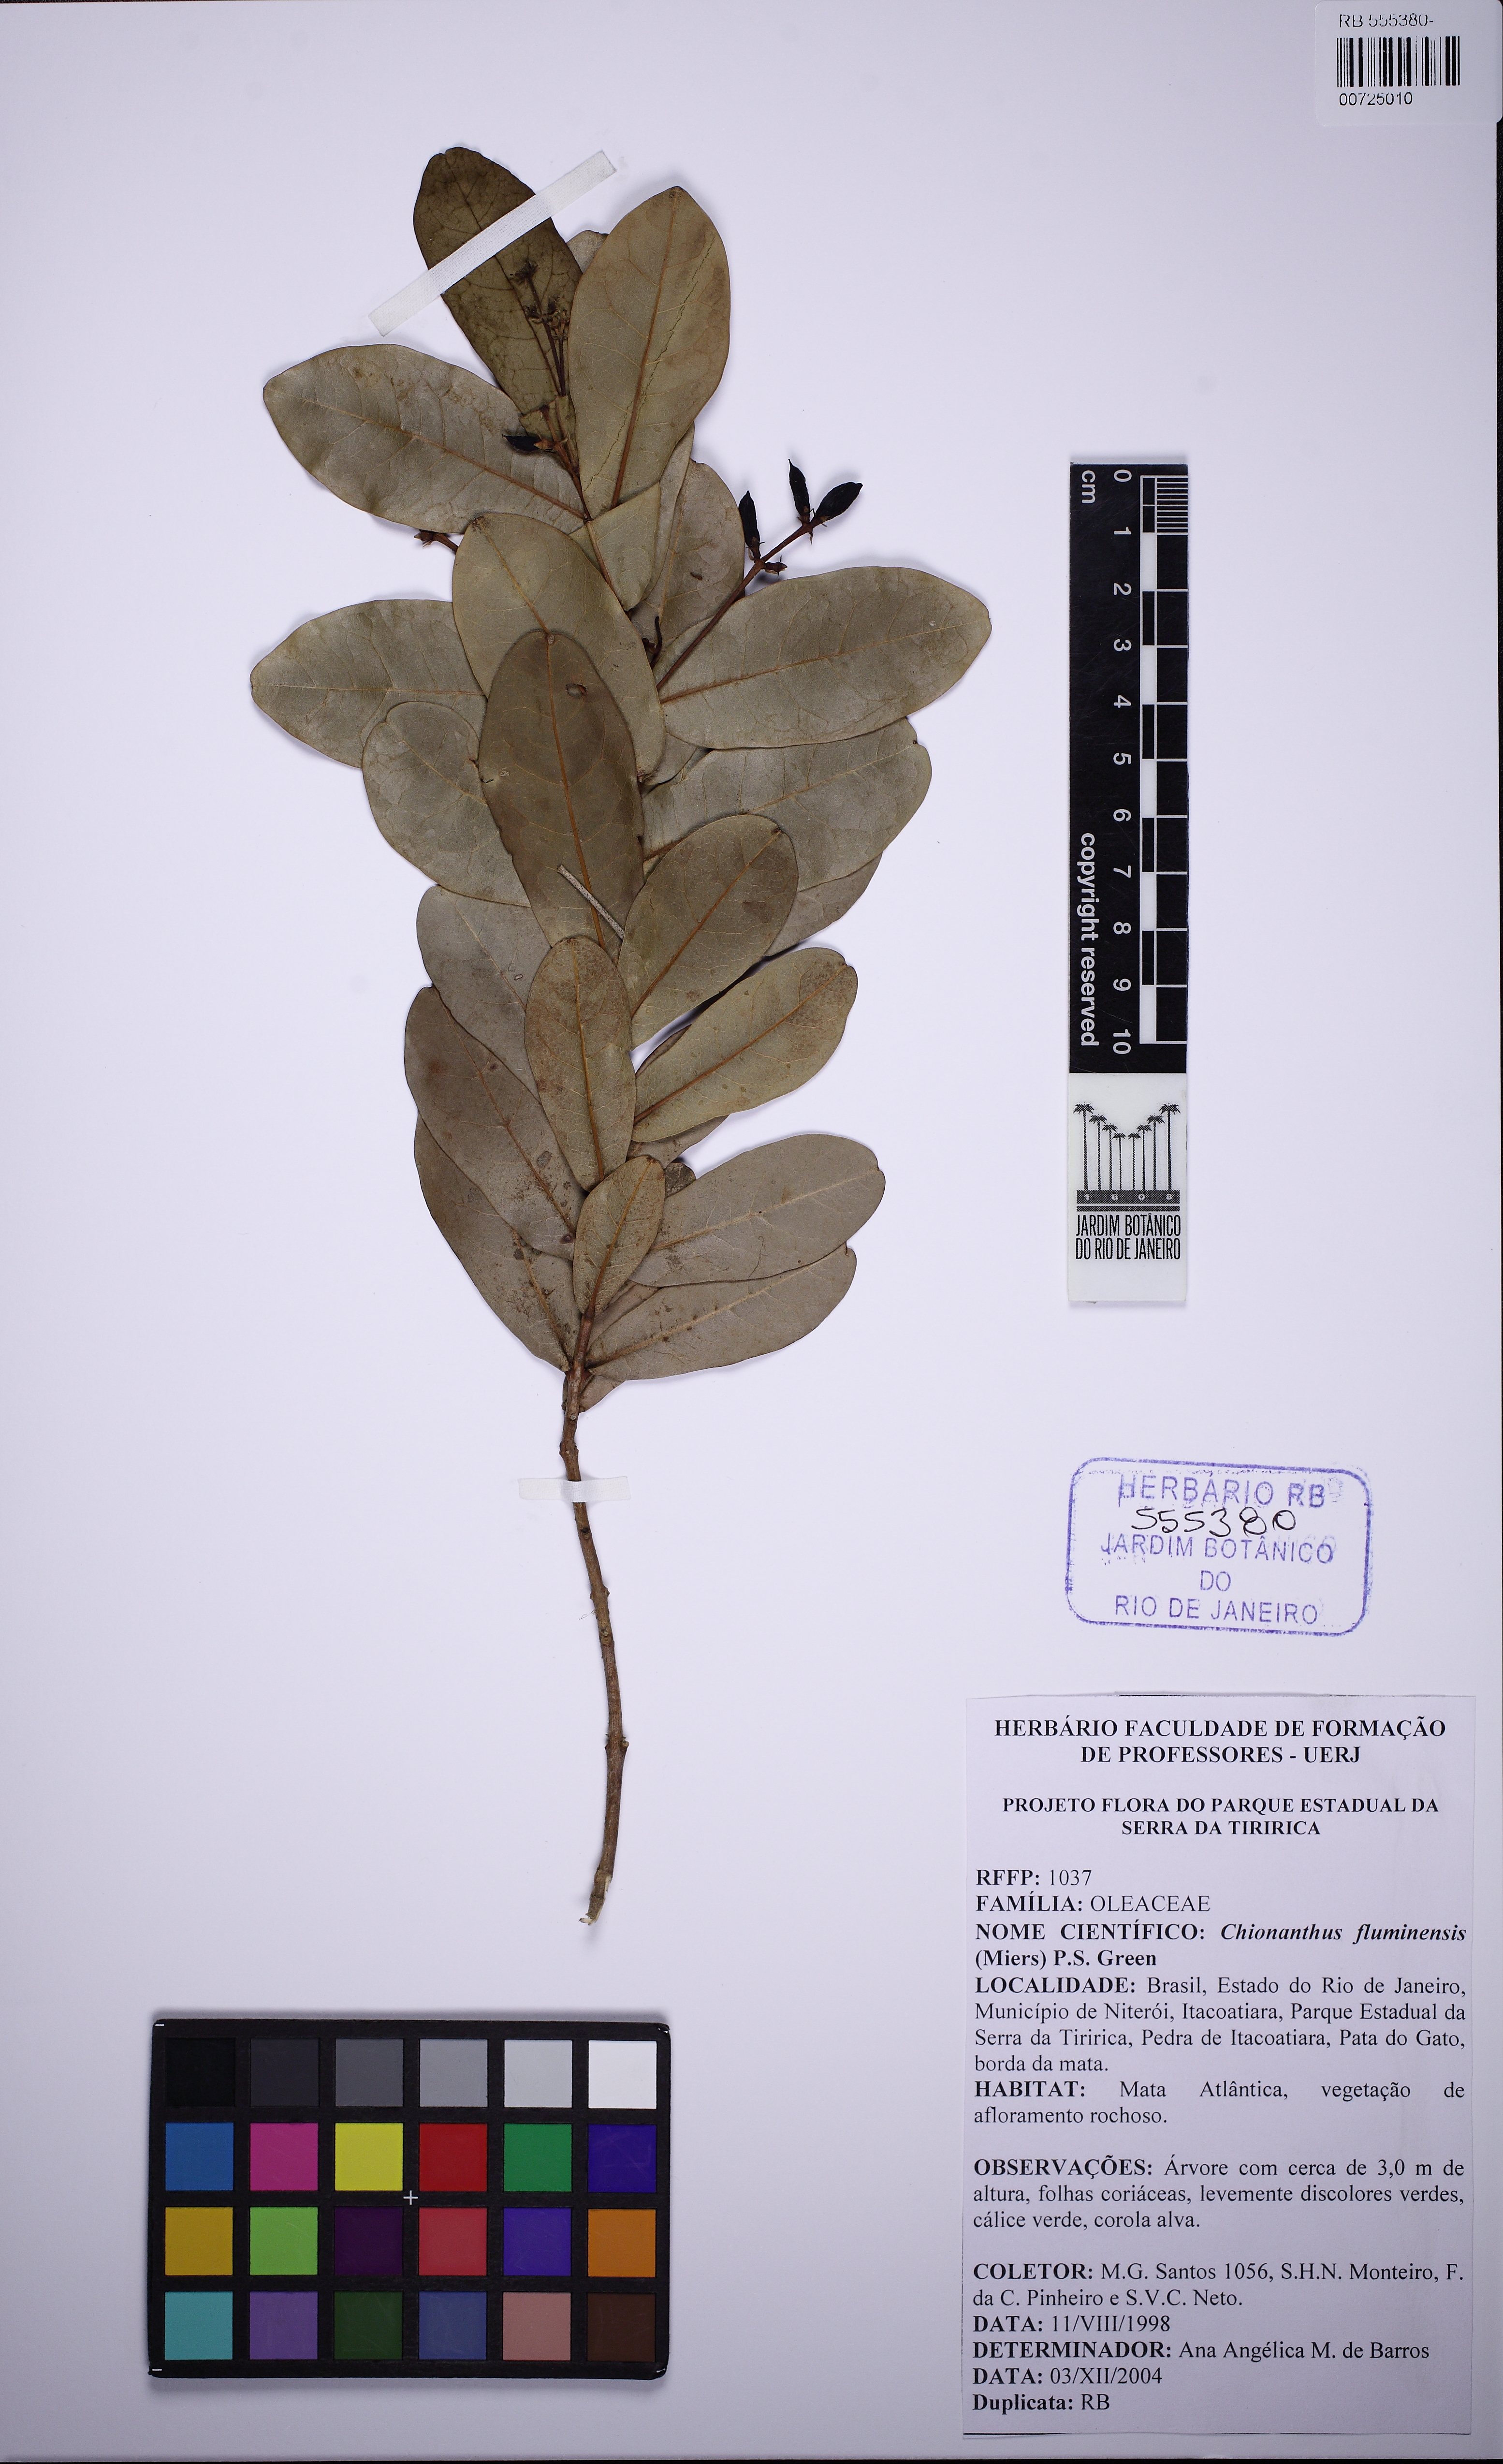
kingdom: Plantae
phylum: Tracheophyta
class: Magnoliopsida
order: Lamiales
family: Oleaceae
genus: Chionanthus
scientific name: Chionanthus fluminensis
